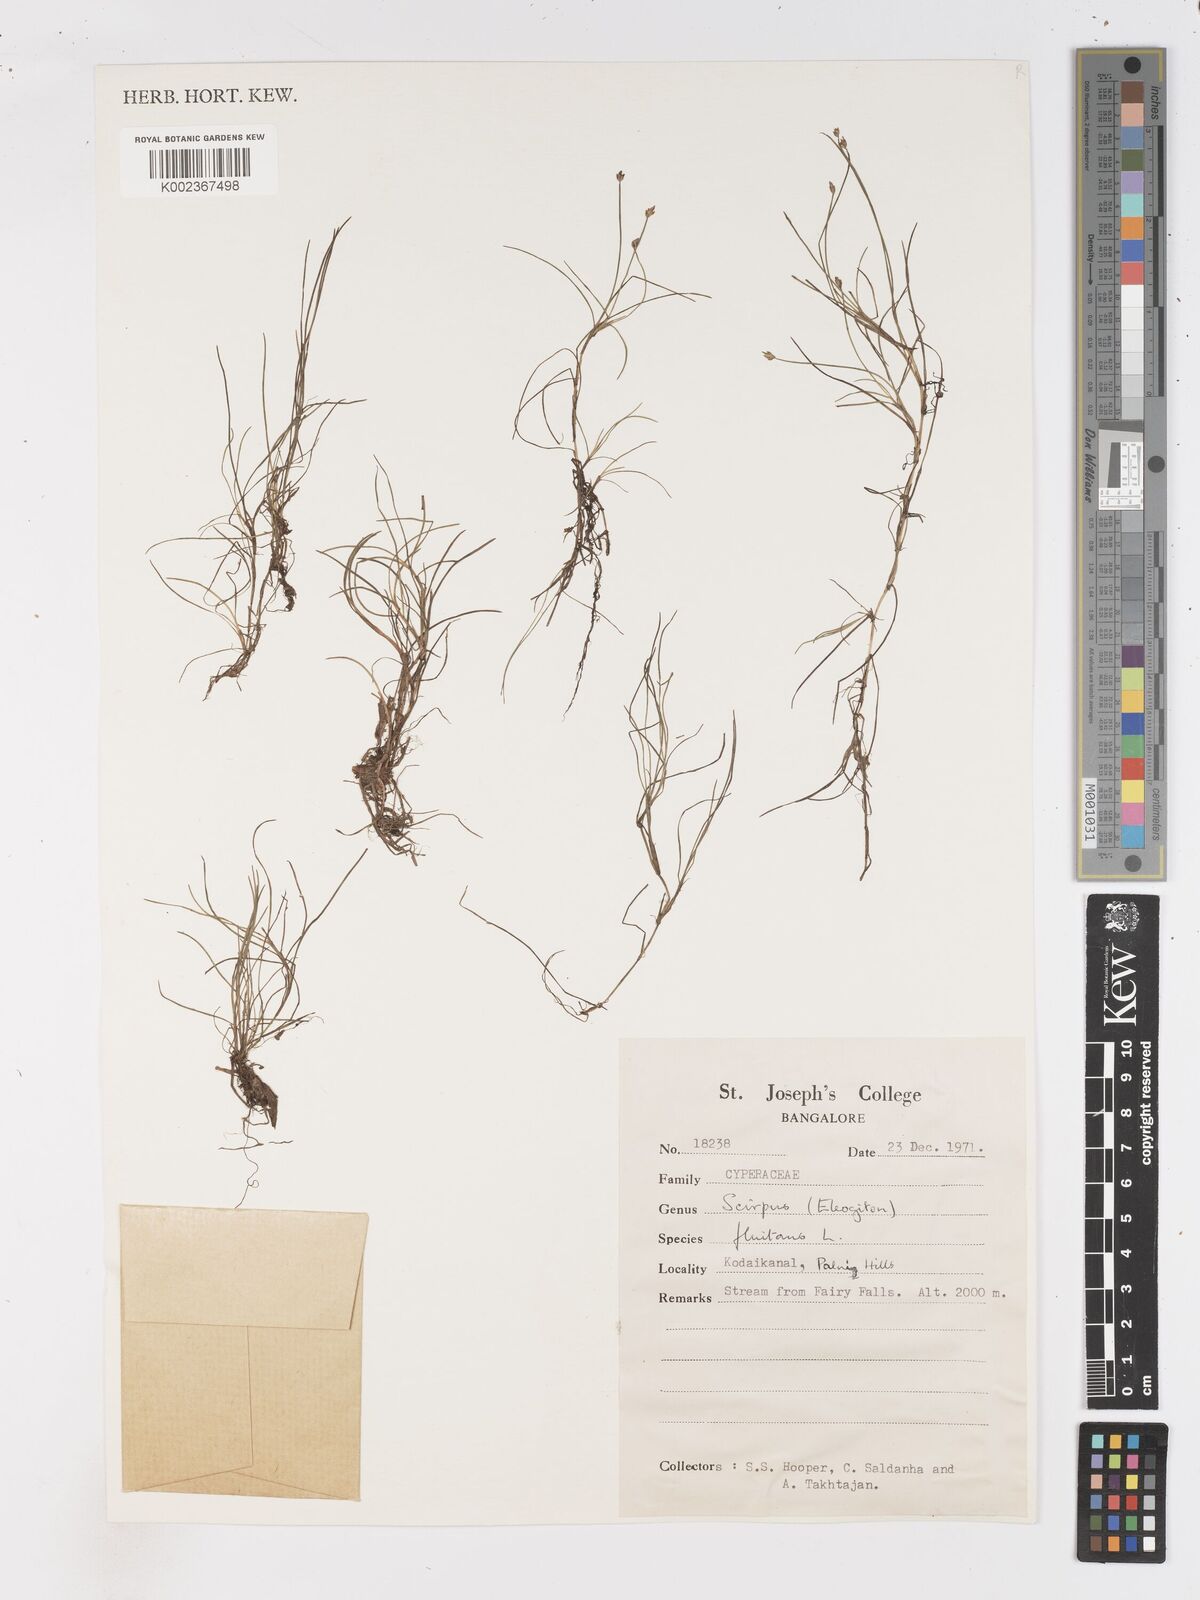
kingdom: Plantae
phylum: Tracheophyta
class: Liliopsida
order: Poales
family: Cyperaceae
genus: Isolepis
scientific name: Isolepis fluitans
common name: Floating club-rush
